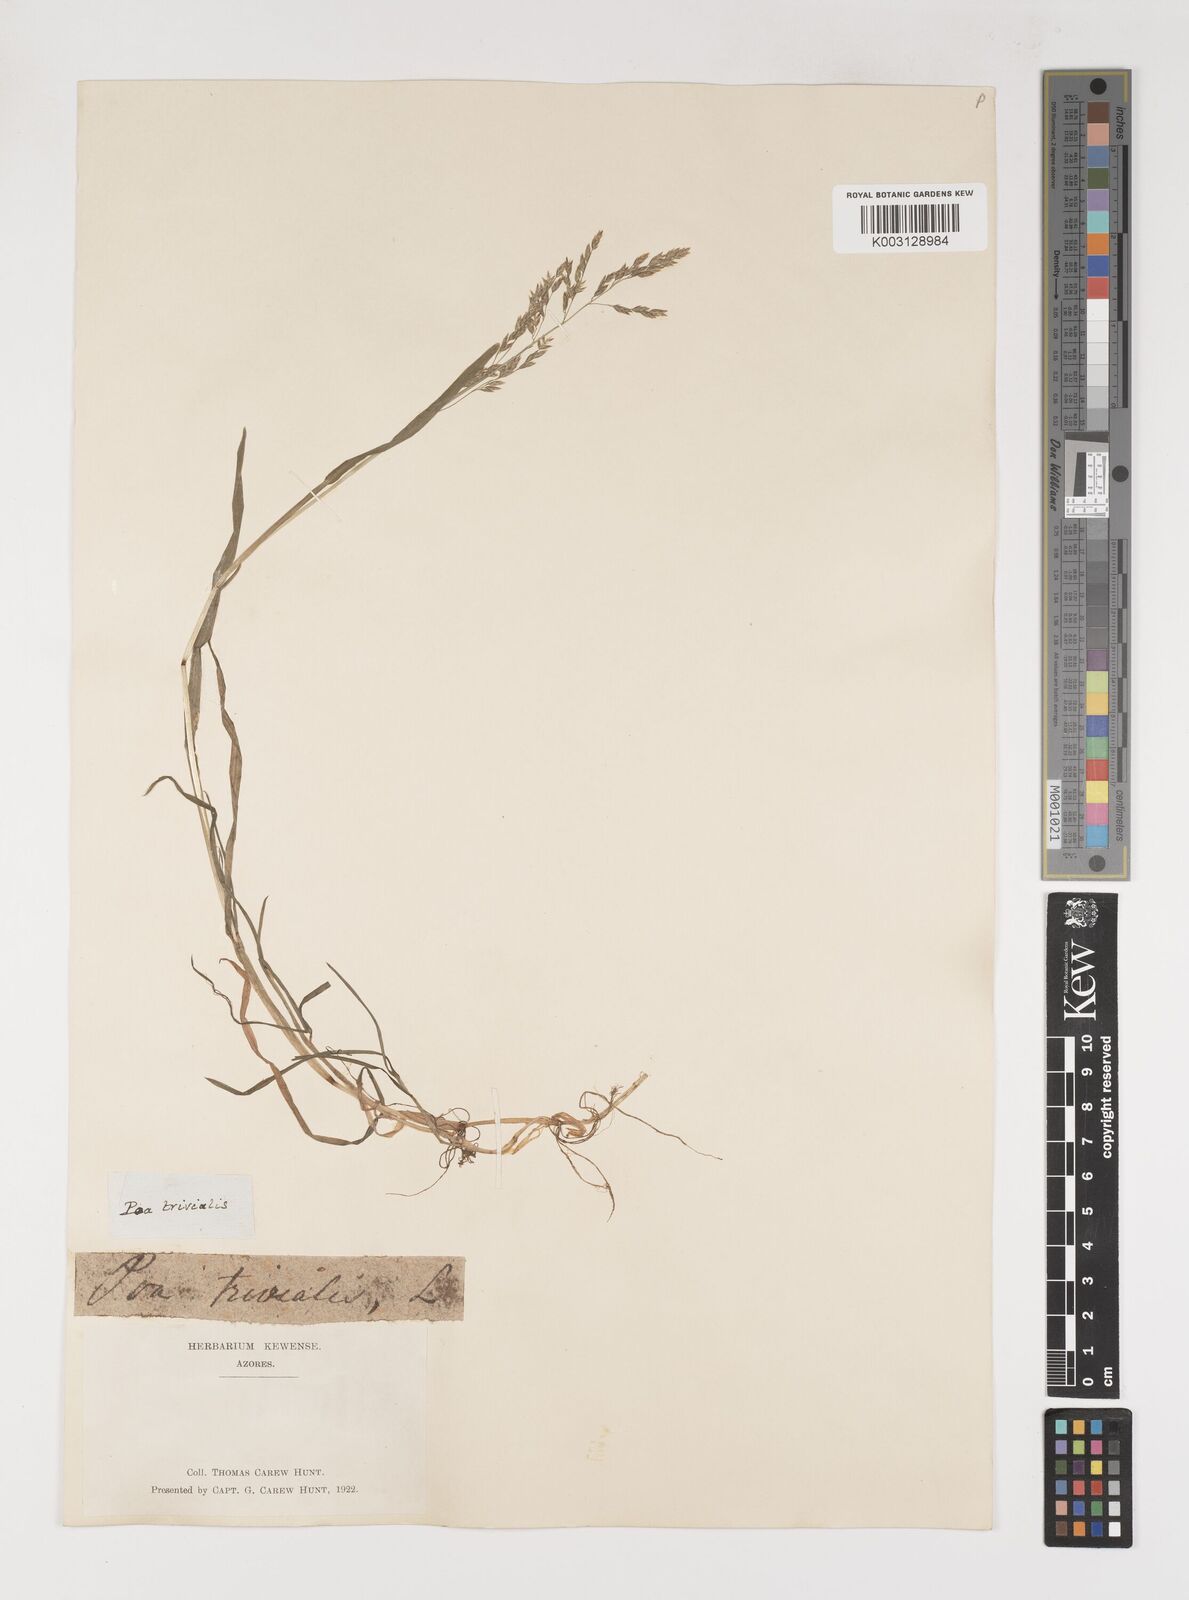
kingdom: Plantae
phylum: Tracheophyta
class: Liliopsida
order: Poales
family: Poaceae
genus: Poa
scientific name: Poa trivialis
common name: Rough bluegrass
